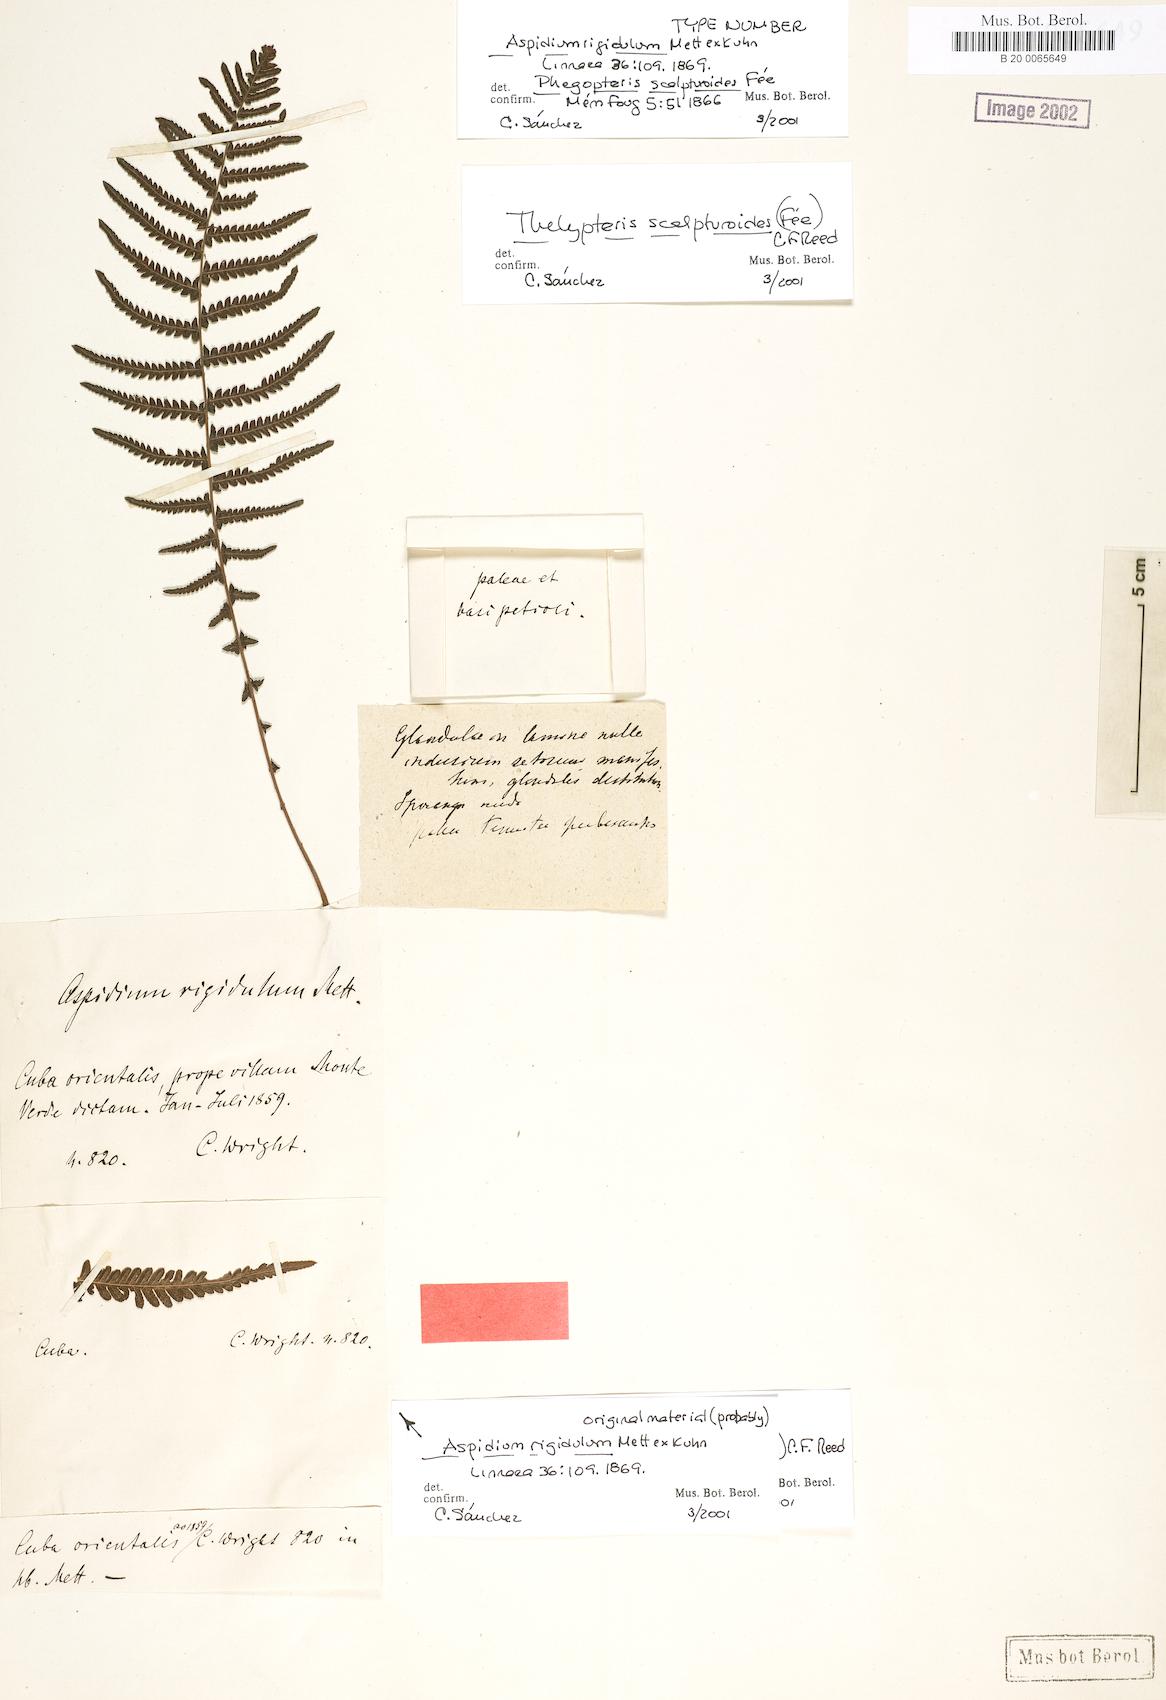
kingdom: Plantae
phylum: Tracheophyta
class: Polypodiopsida
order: Polypodiales
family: Thelypteridaceae
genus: Amauropelta
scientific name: Amauropelta scalpturoides
